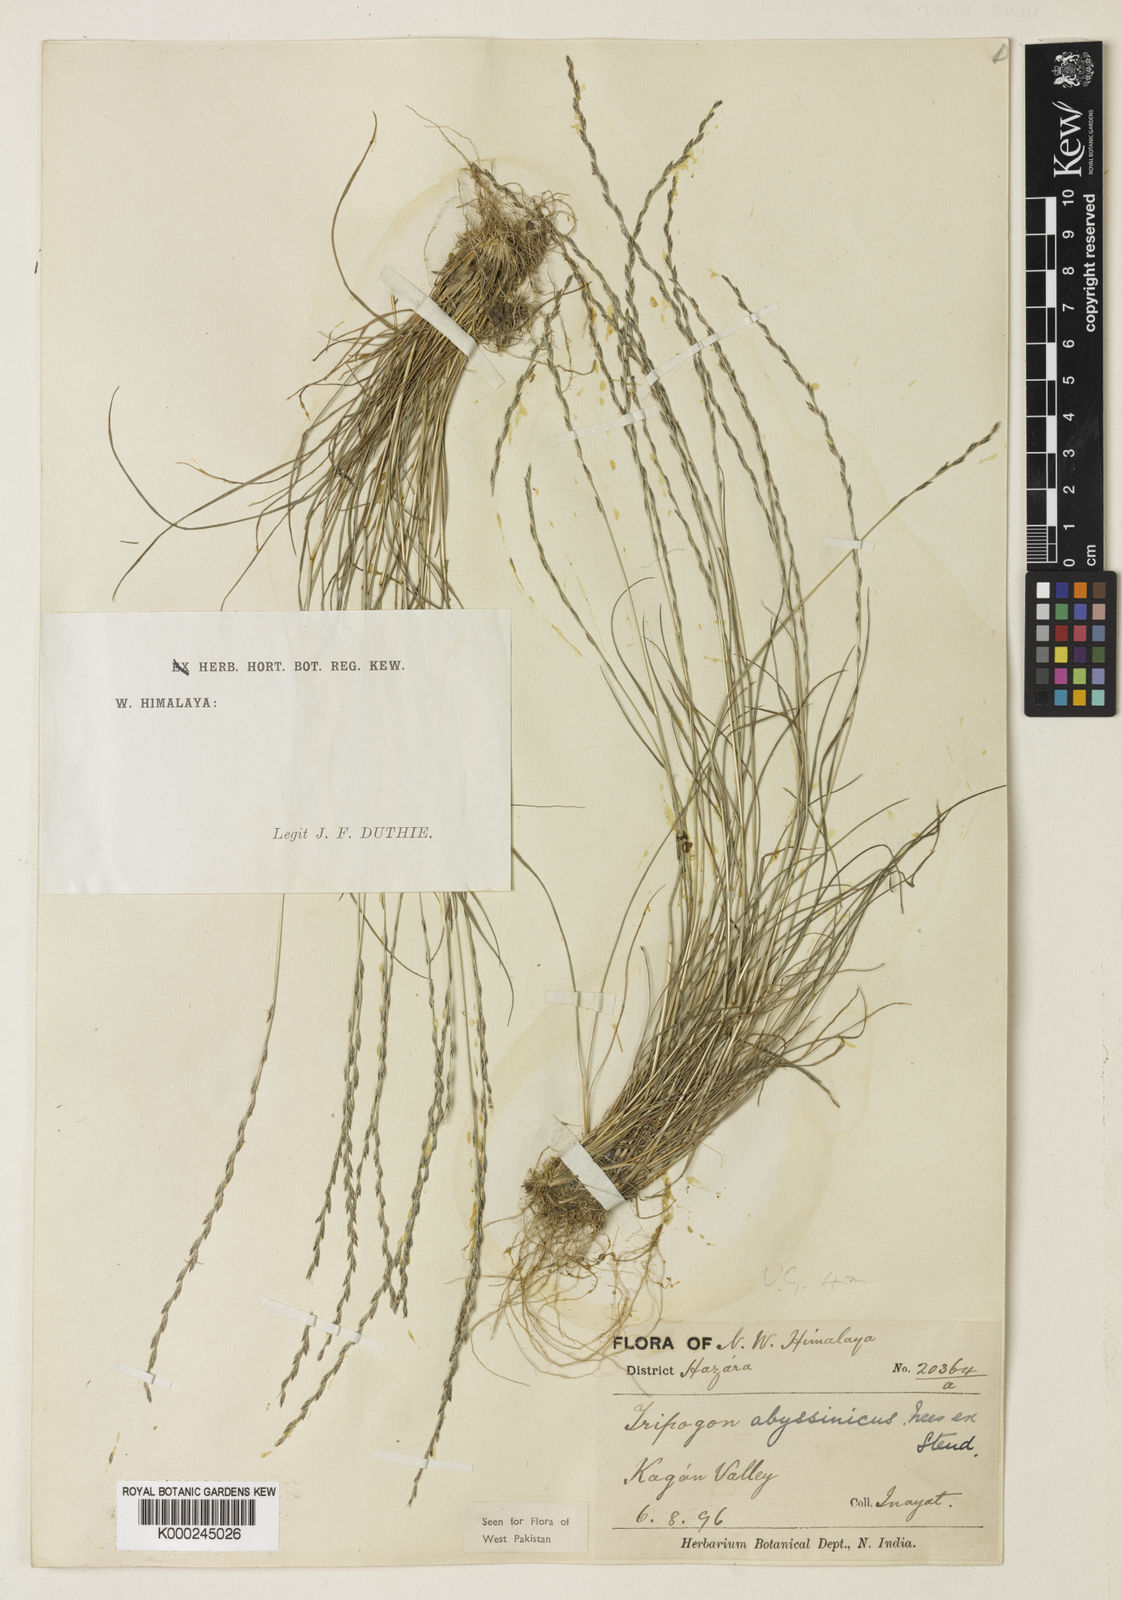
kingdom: Plantae
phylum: Tracheophyta
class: Liliopsida
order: Poales
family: Poaceae
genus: Tripogon
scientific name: Tripogon purpurascens
